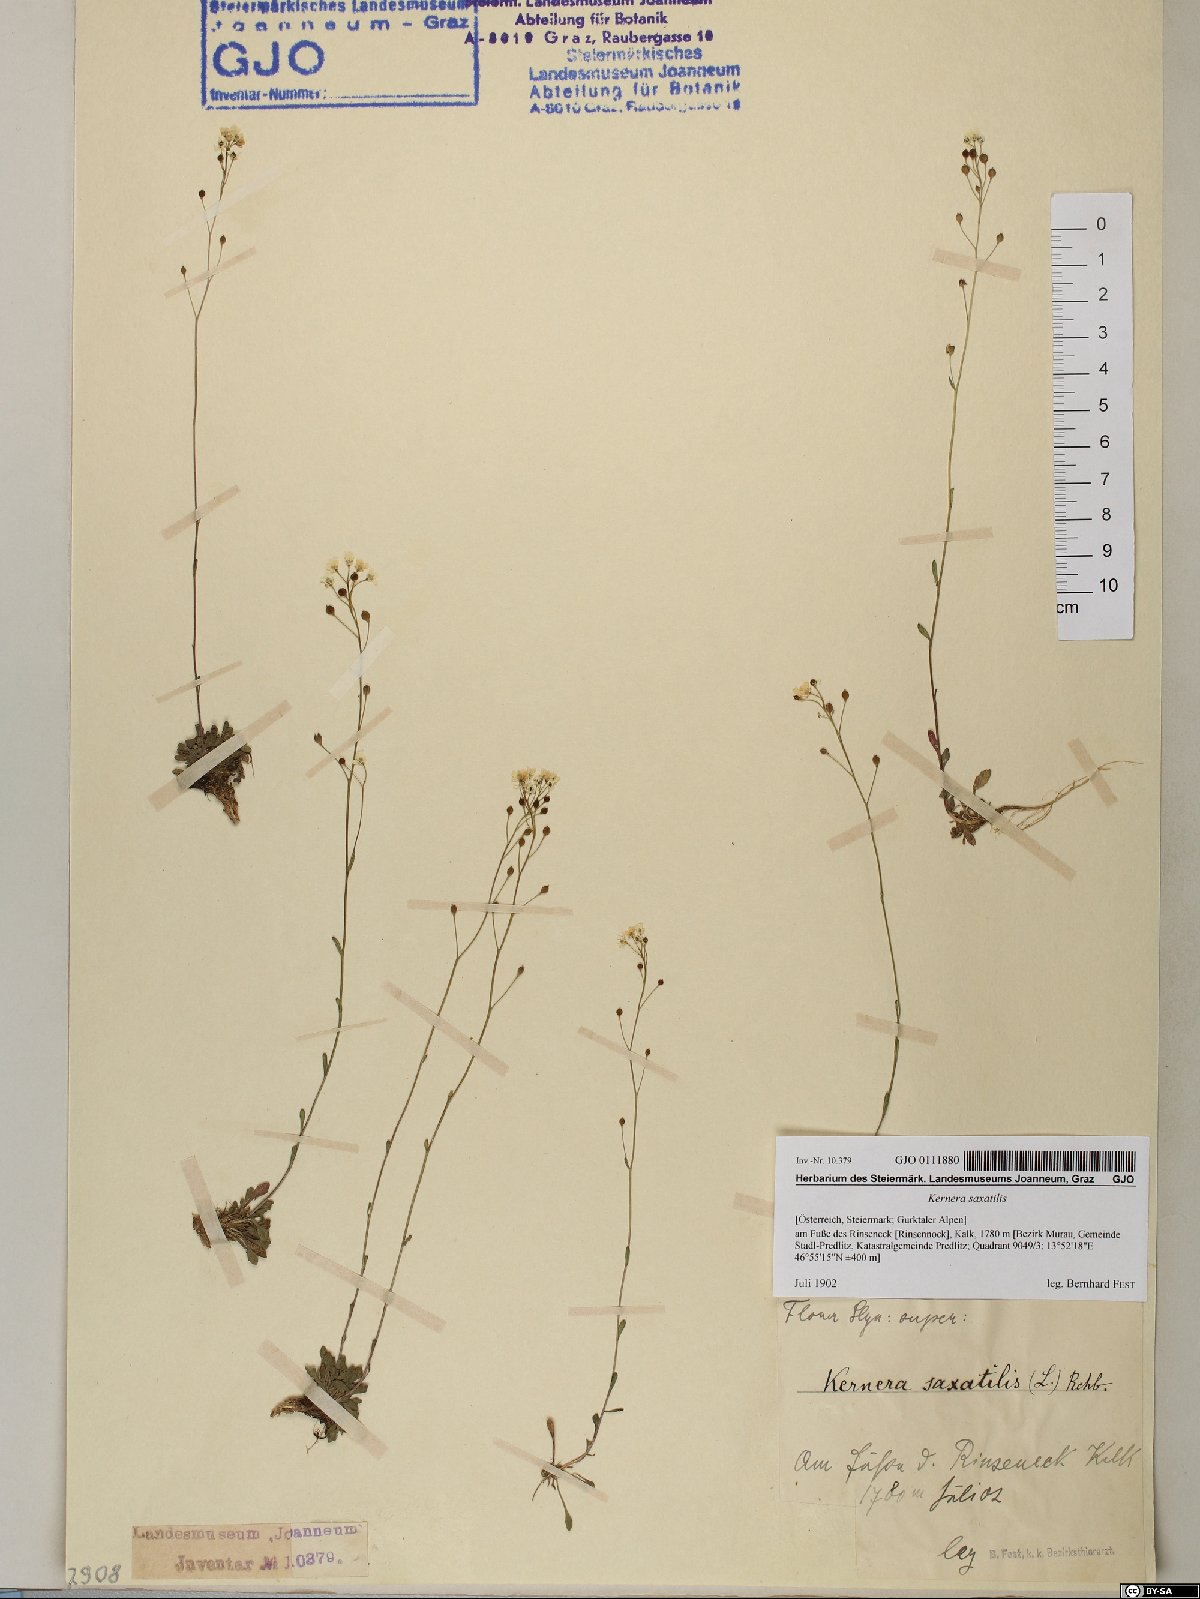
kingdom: Plantae
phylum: Tracheophyta
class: Magnoliopsida
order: Brassicales
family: Brassicaceae
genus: Kernera
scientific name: Kernera saxatilis
